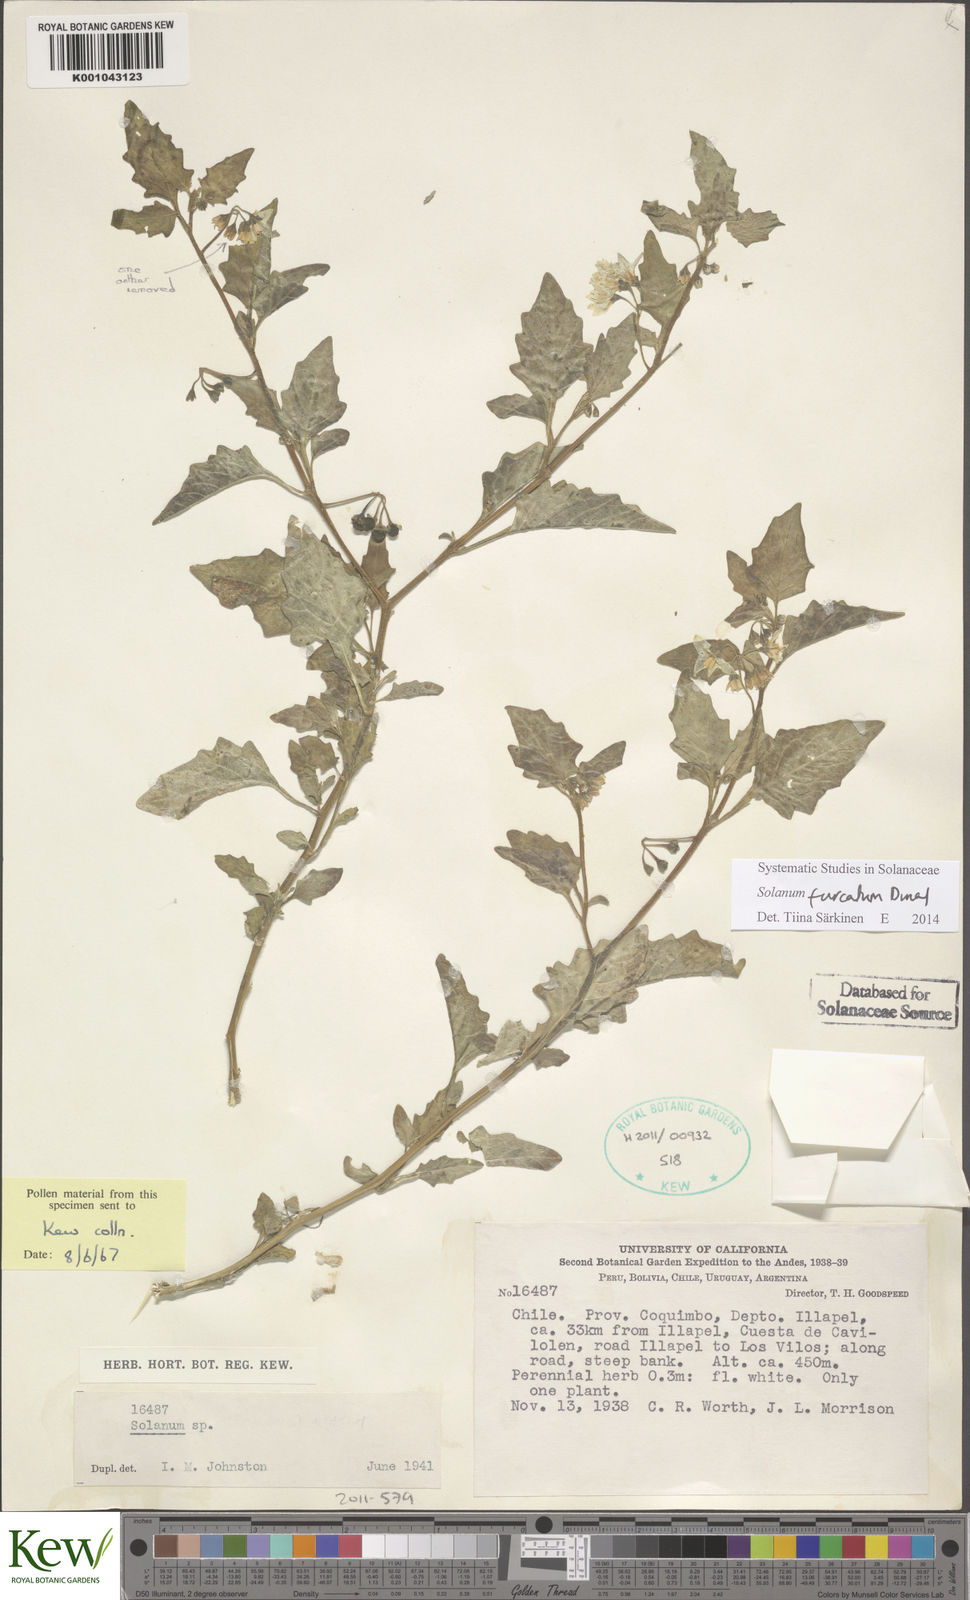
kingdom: Plantae
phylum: Tracheophyta
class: Magnoliopsida
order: Solanales
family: Solanaceae
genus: Solanum
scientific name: Solanum furcatum
